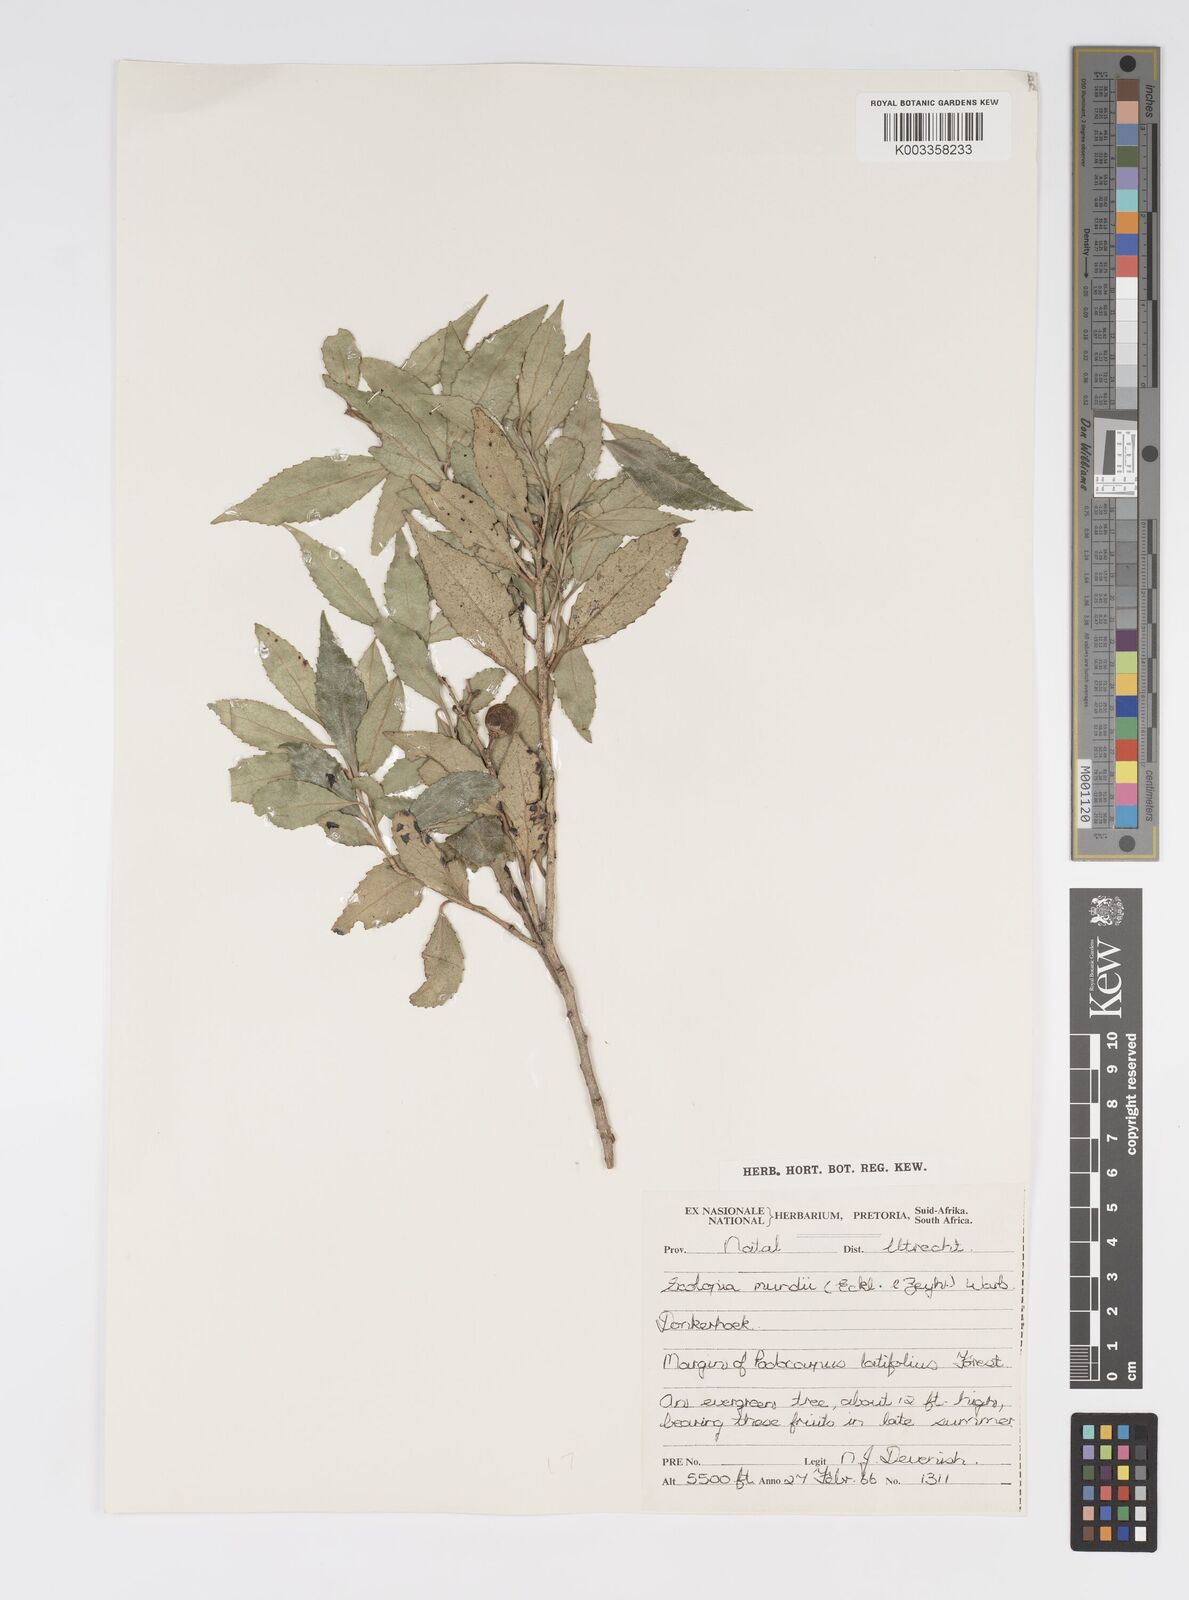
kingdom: Plantae
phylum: Tracheophyta
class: Magnoliopsida
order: Malpighiales
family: Salicaceae
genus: Scolopia
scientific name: Scolopia mundii
